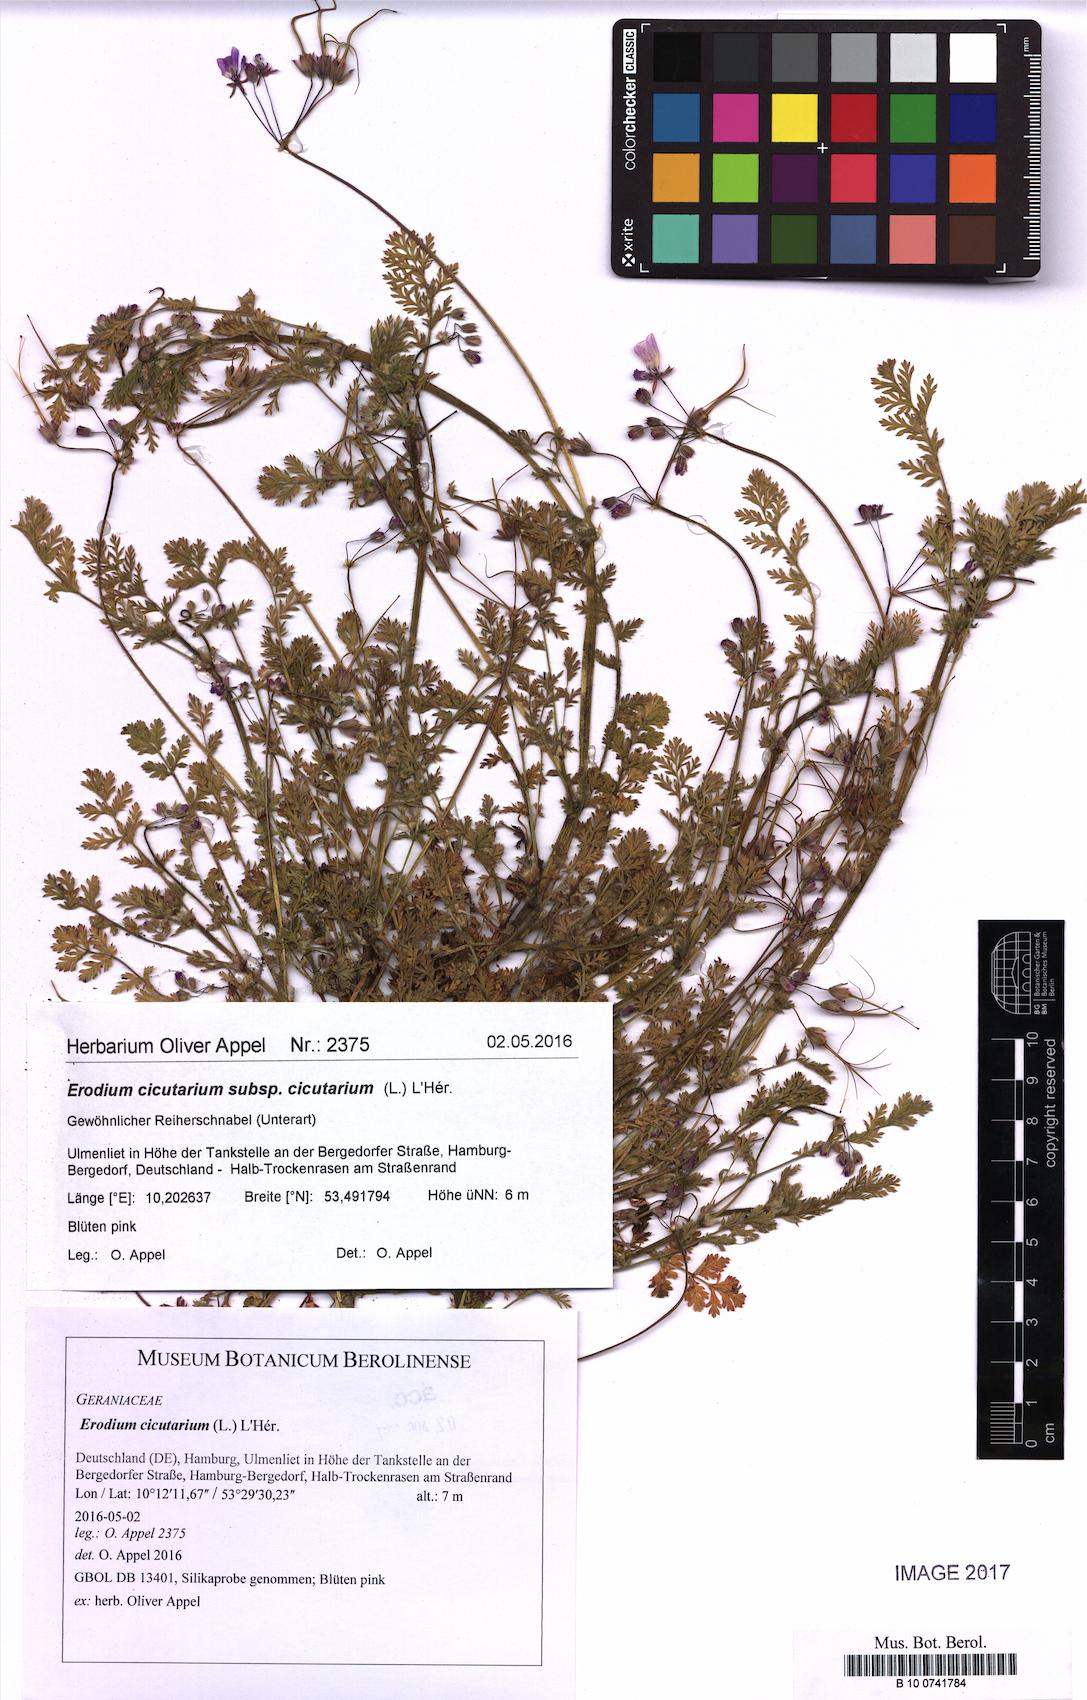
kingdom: Plantae
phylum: Tracheophyta
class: Magnoliopsida
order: Geraniales
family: Geraniaceae
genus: Erodium
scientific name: Erodium cicutarium
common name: Common stork's-bill
